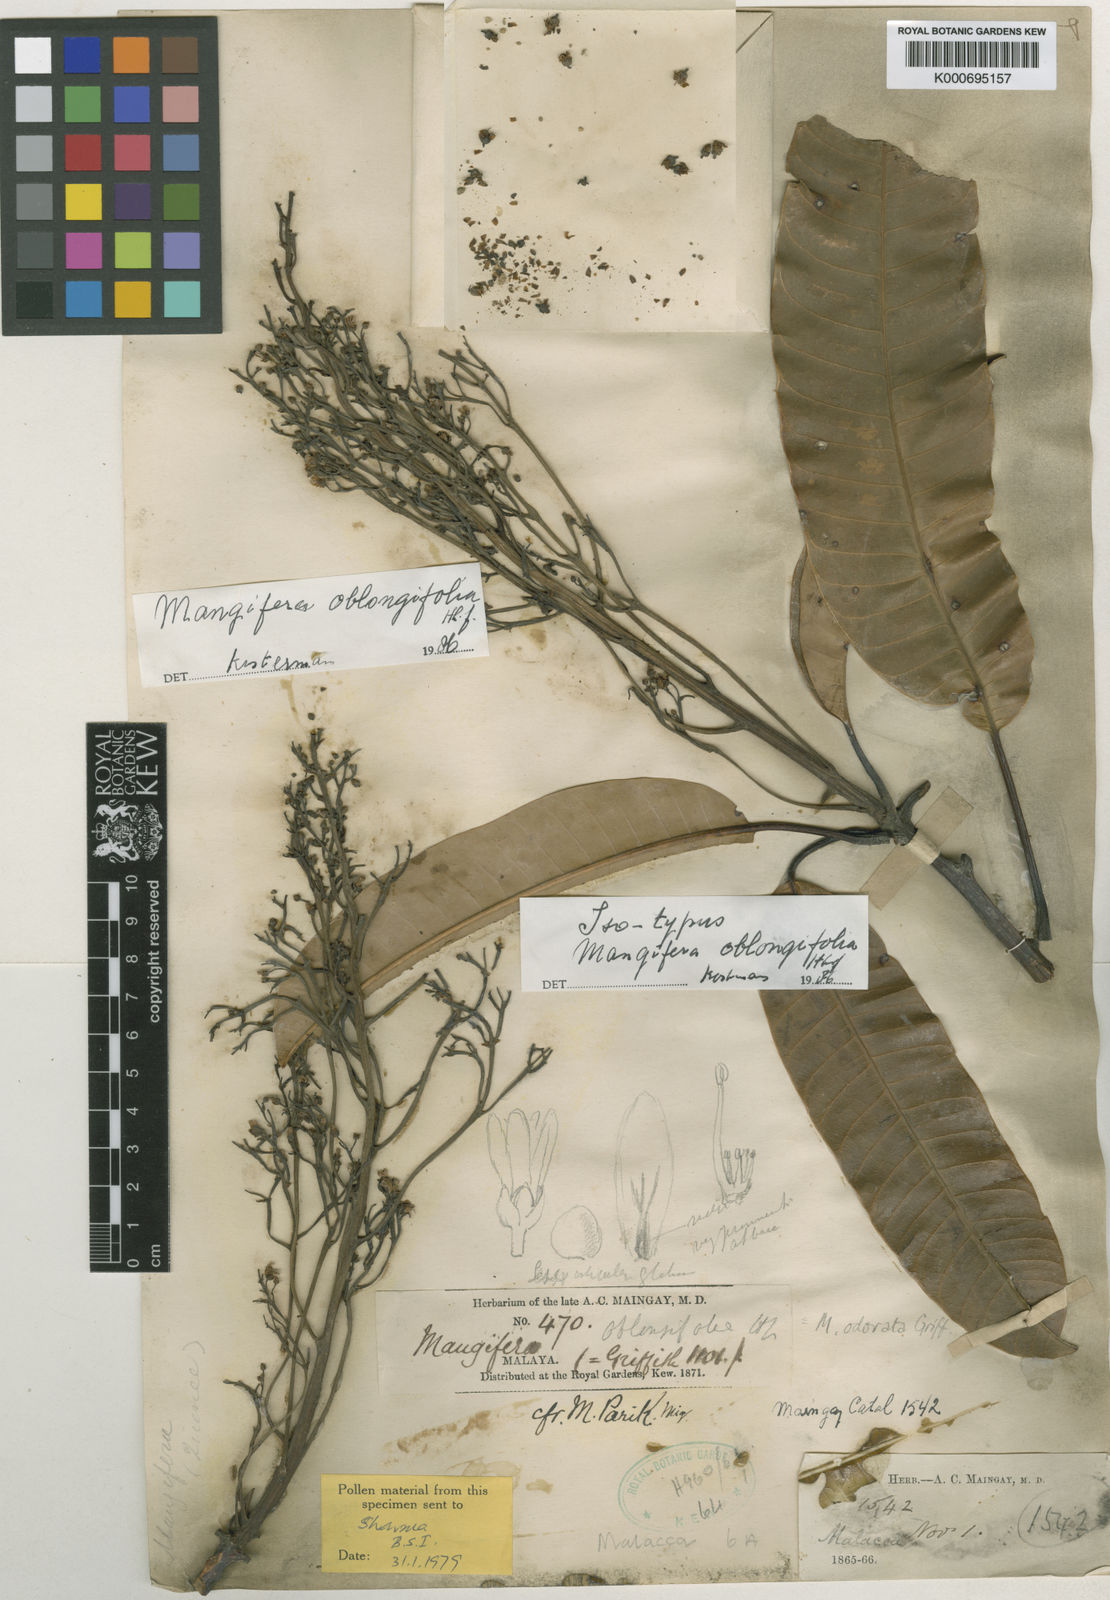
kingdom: Plantae
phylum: Tracheophyta
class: Magnoliopsida
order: Sapindales
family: Anacardiaceae
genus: Mangifera
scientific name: Mangifera odorata
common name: Saipan mango
